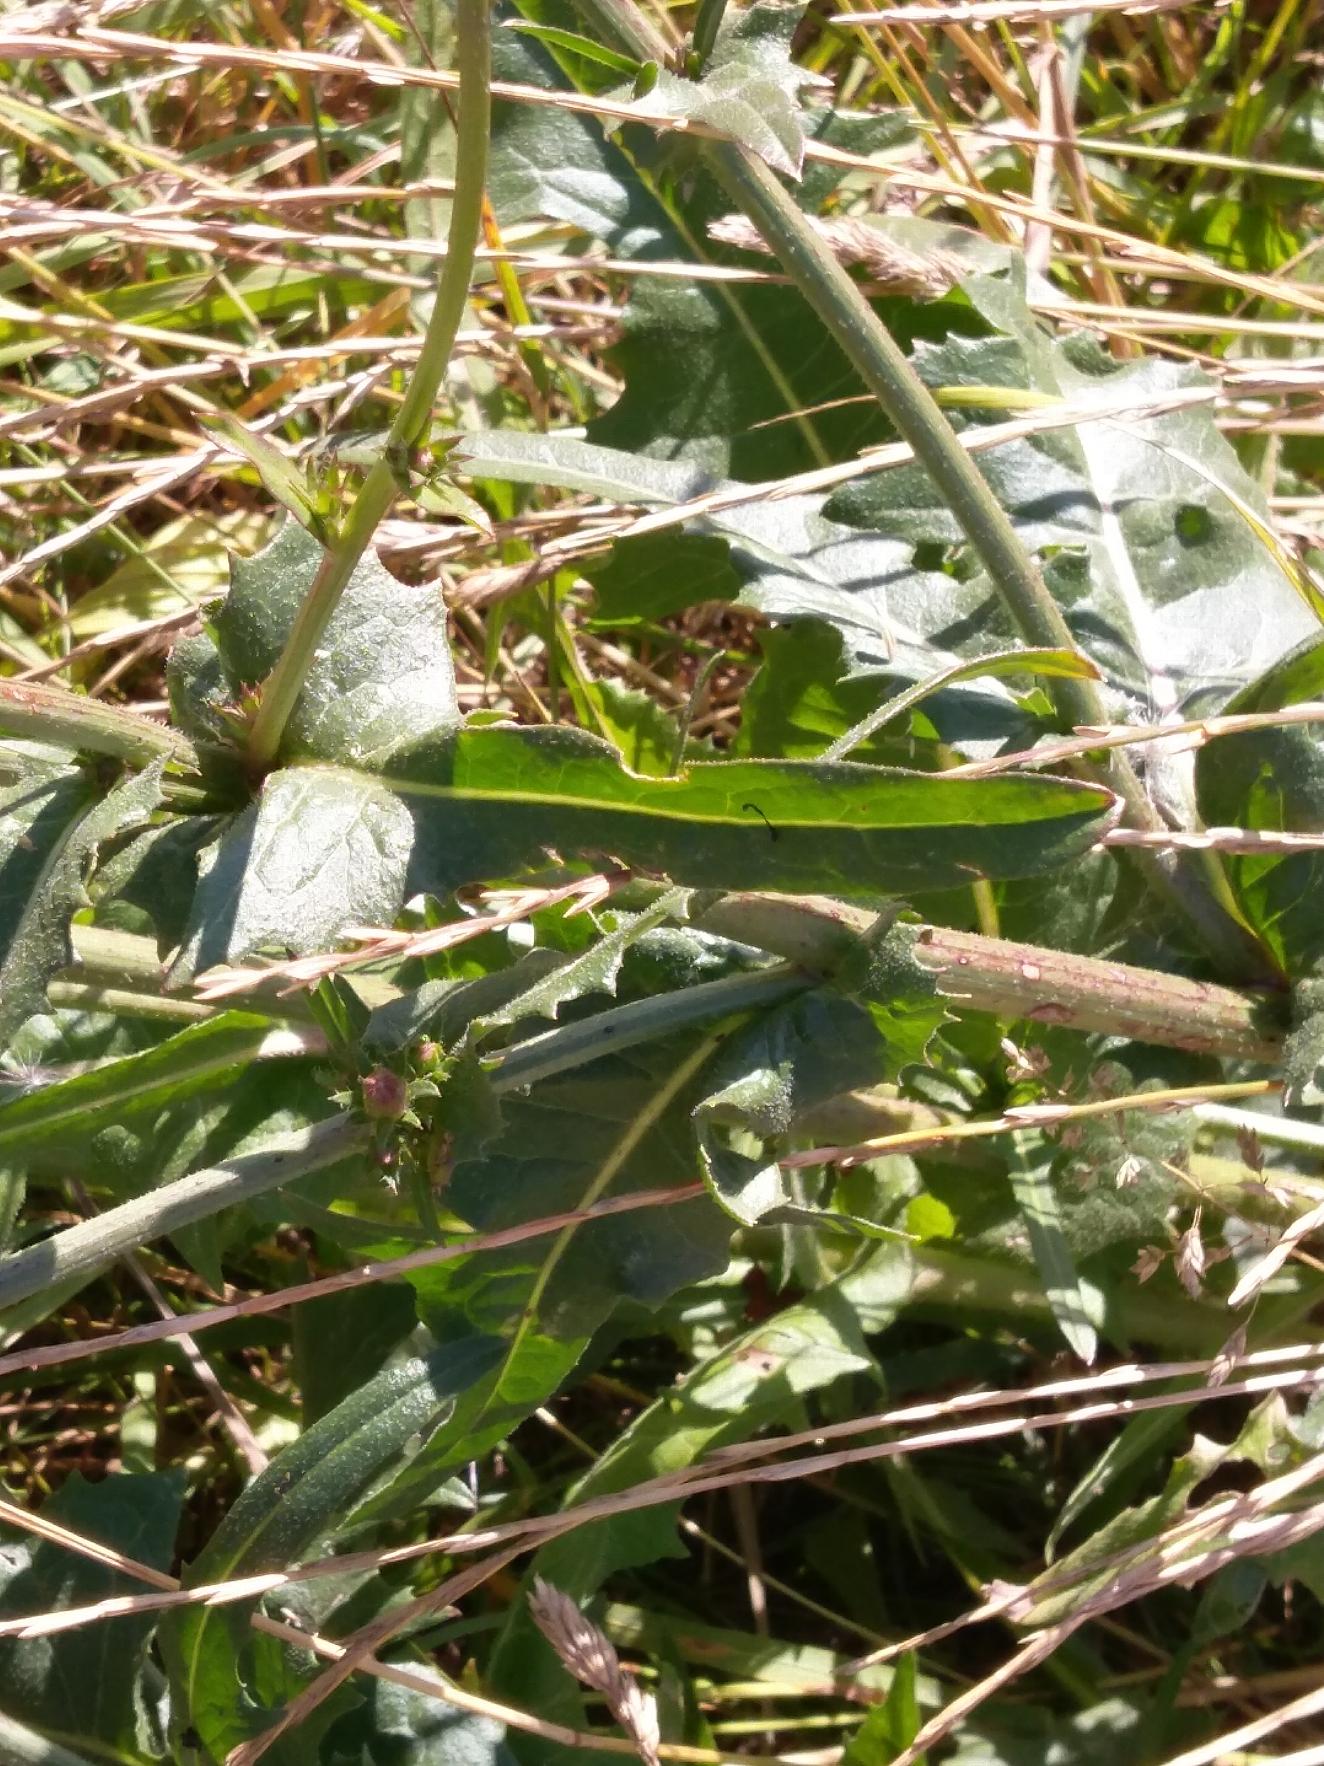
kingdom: Plantae
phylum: Tracheophyta
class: Magnoliopsida
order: Asterales
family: Asteraceae
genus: Cichorium
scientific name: Cichorium intybus
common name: Cikorie
